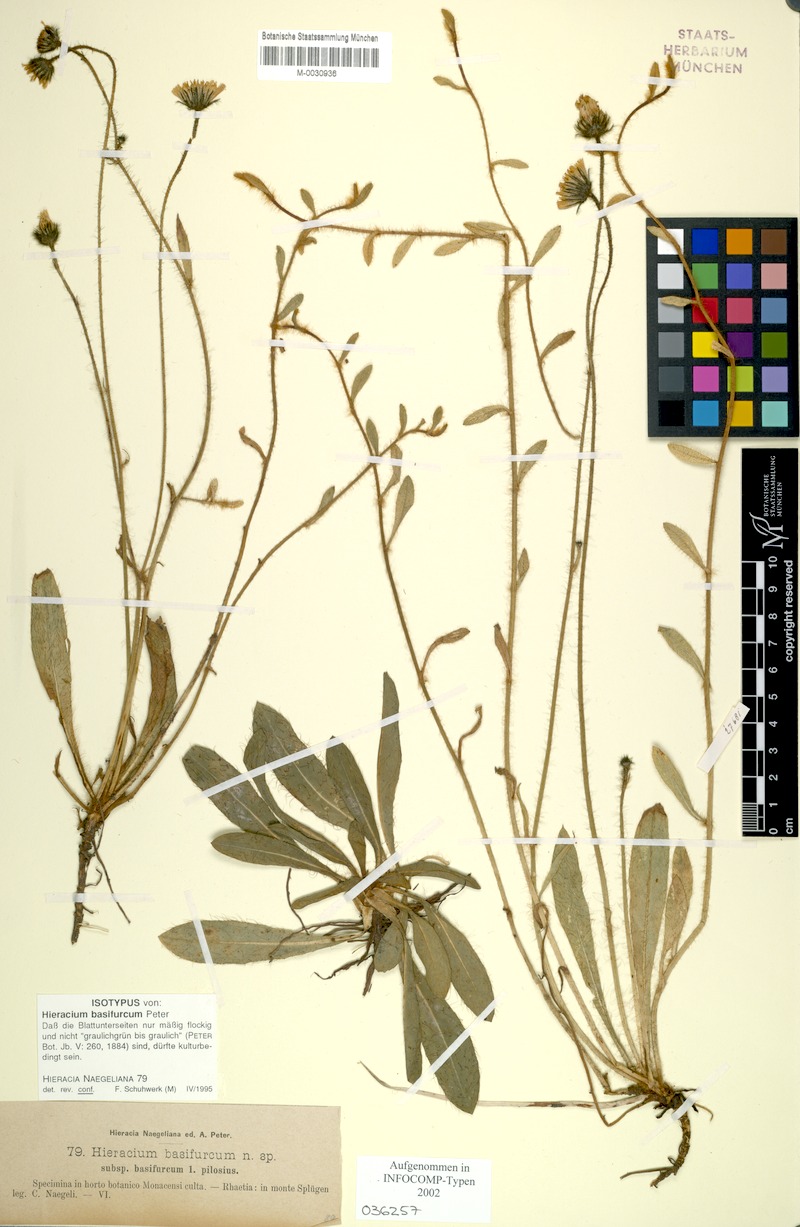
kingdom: Plantae
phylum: Tracheophyta
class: Magnoliopsida
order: Asterales
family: Asteraceae
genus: Pilosella
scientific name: Pilosella basifurca
